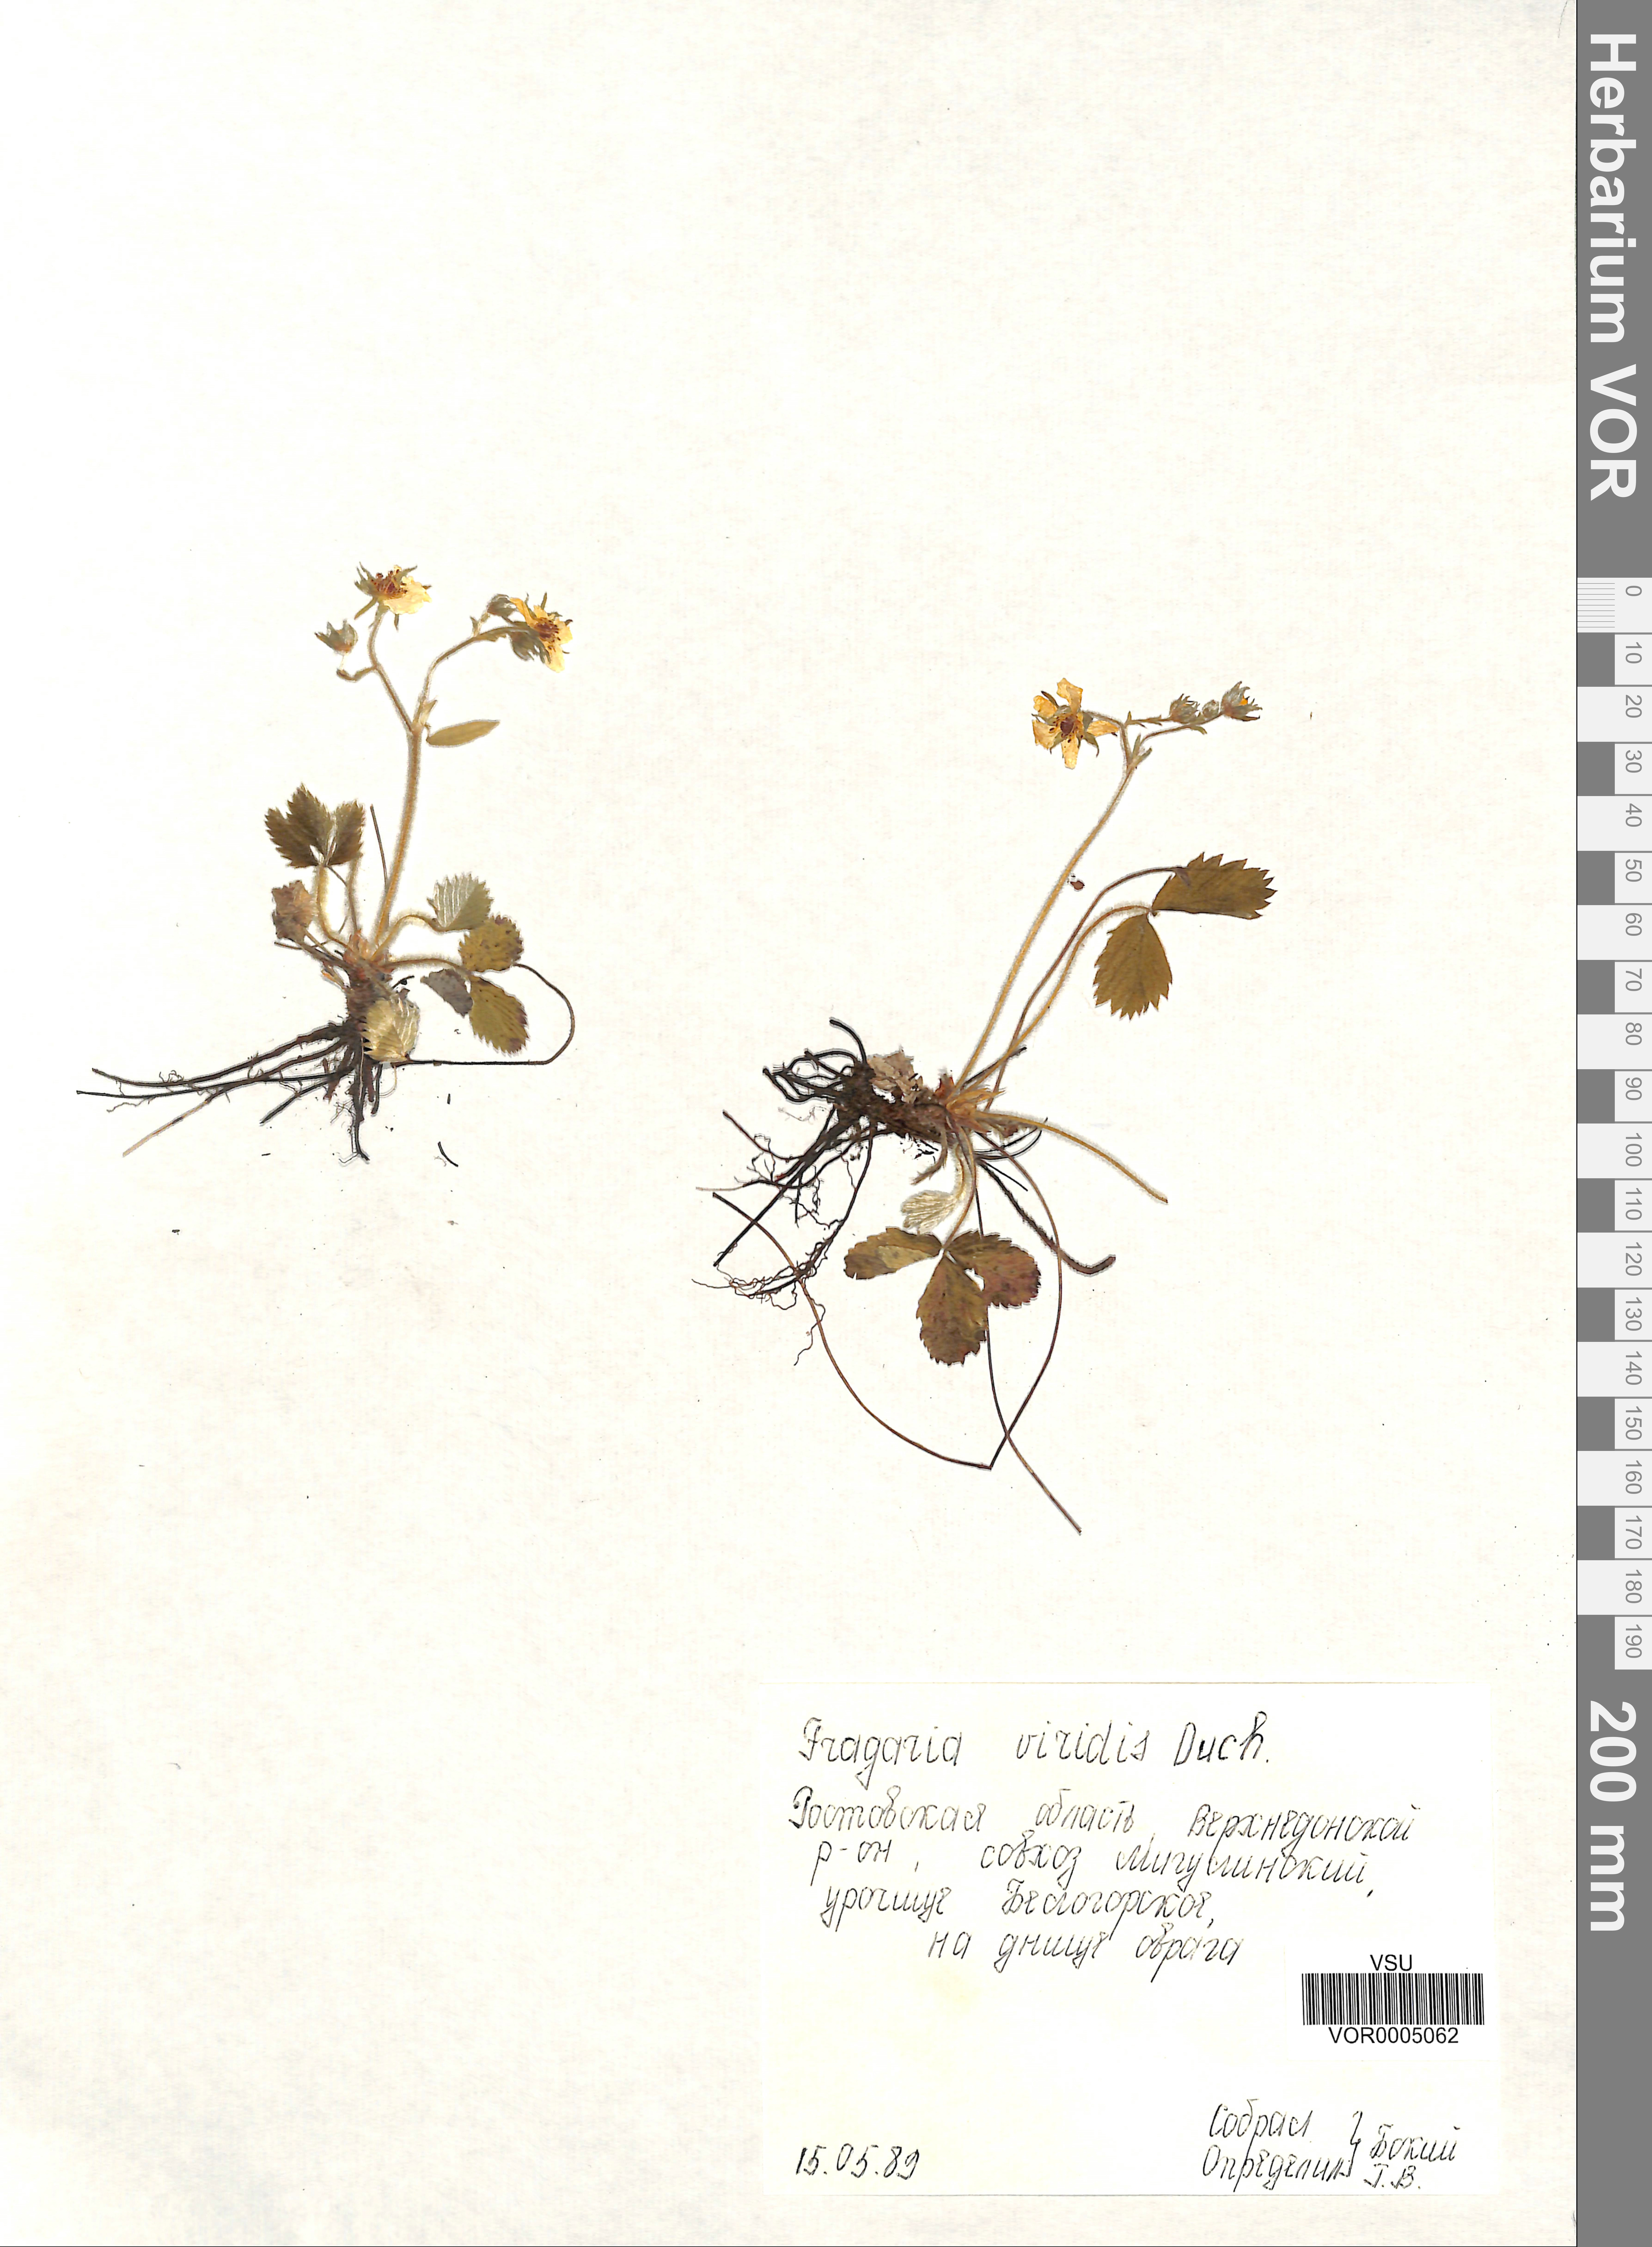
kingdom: Plantae
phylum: Tracheophyta
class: Magnoliopsida
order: Rosales
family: Rosaceae
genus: Fragaria
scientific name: Fragaria viridis
